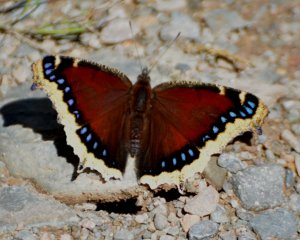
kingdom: Animalia
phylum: Arthropoda
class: Insecta
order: Lepidoptera
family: Nymphalidae
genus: Nymphalis
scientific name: Nymphalis antiopa
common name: Mourning Cloak
